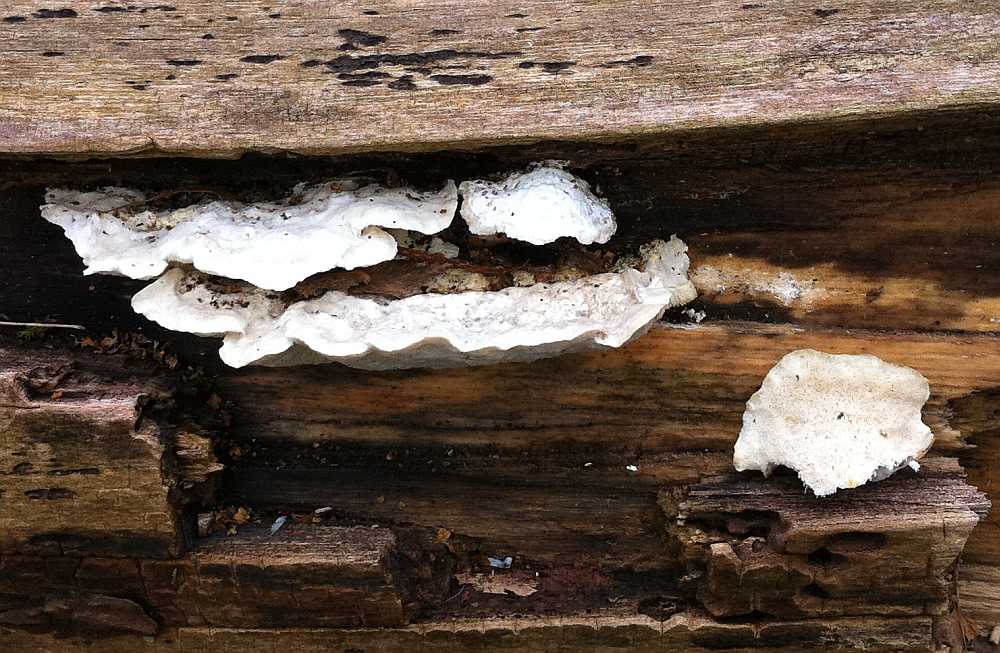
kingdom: Fungi
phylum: Basidiomycota
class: Agaricomycetes
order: Polyporales
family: Polyporaceae
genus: Cyanosporus
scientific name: Cyanosporus alni
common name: blegblå kødporesvamp
